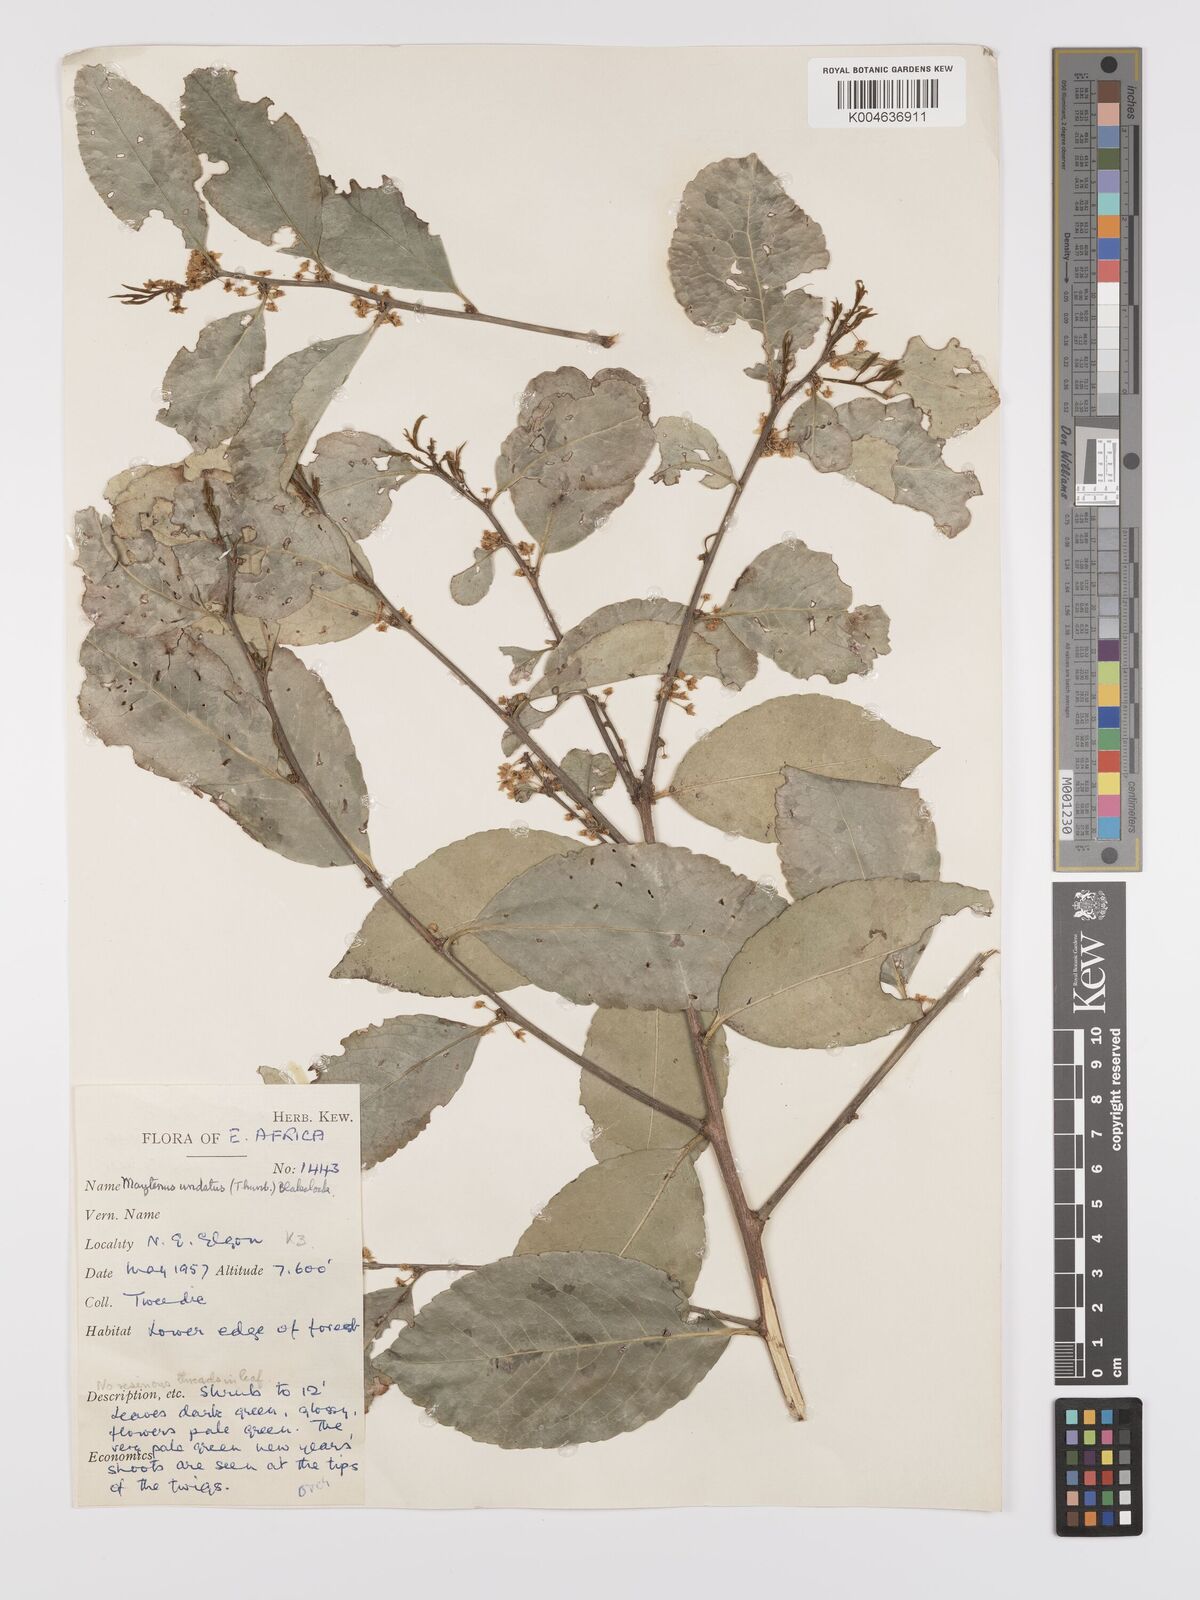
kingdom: Plantae
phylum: Tracheophyta
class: Magnoliopsida
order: Celastrales
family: Celastraceae
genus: Gymnosporia
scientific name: Gymnosporia undata
